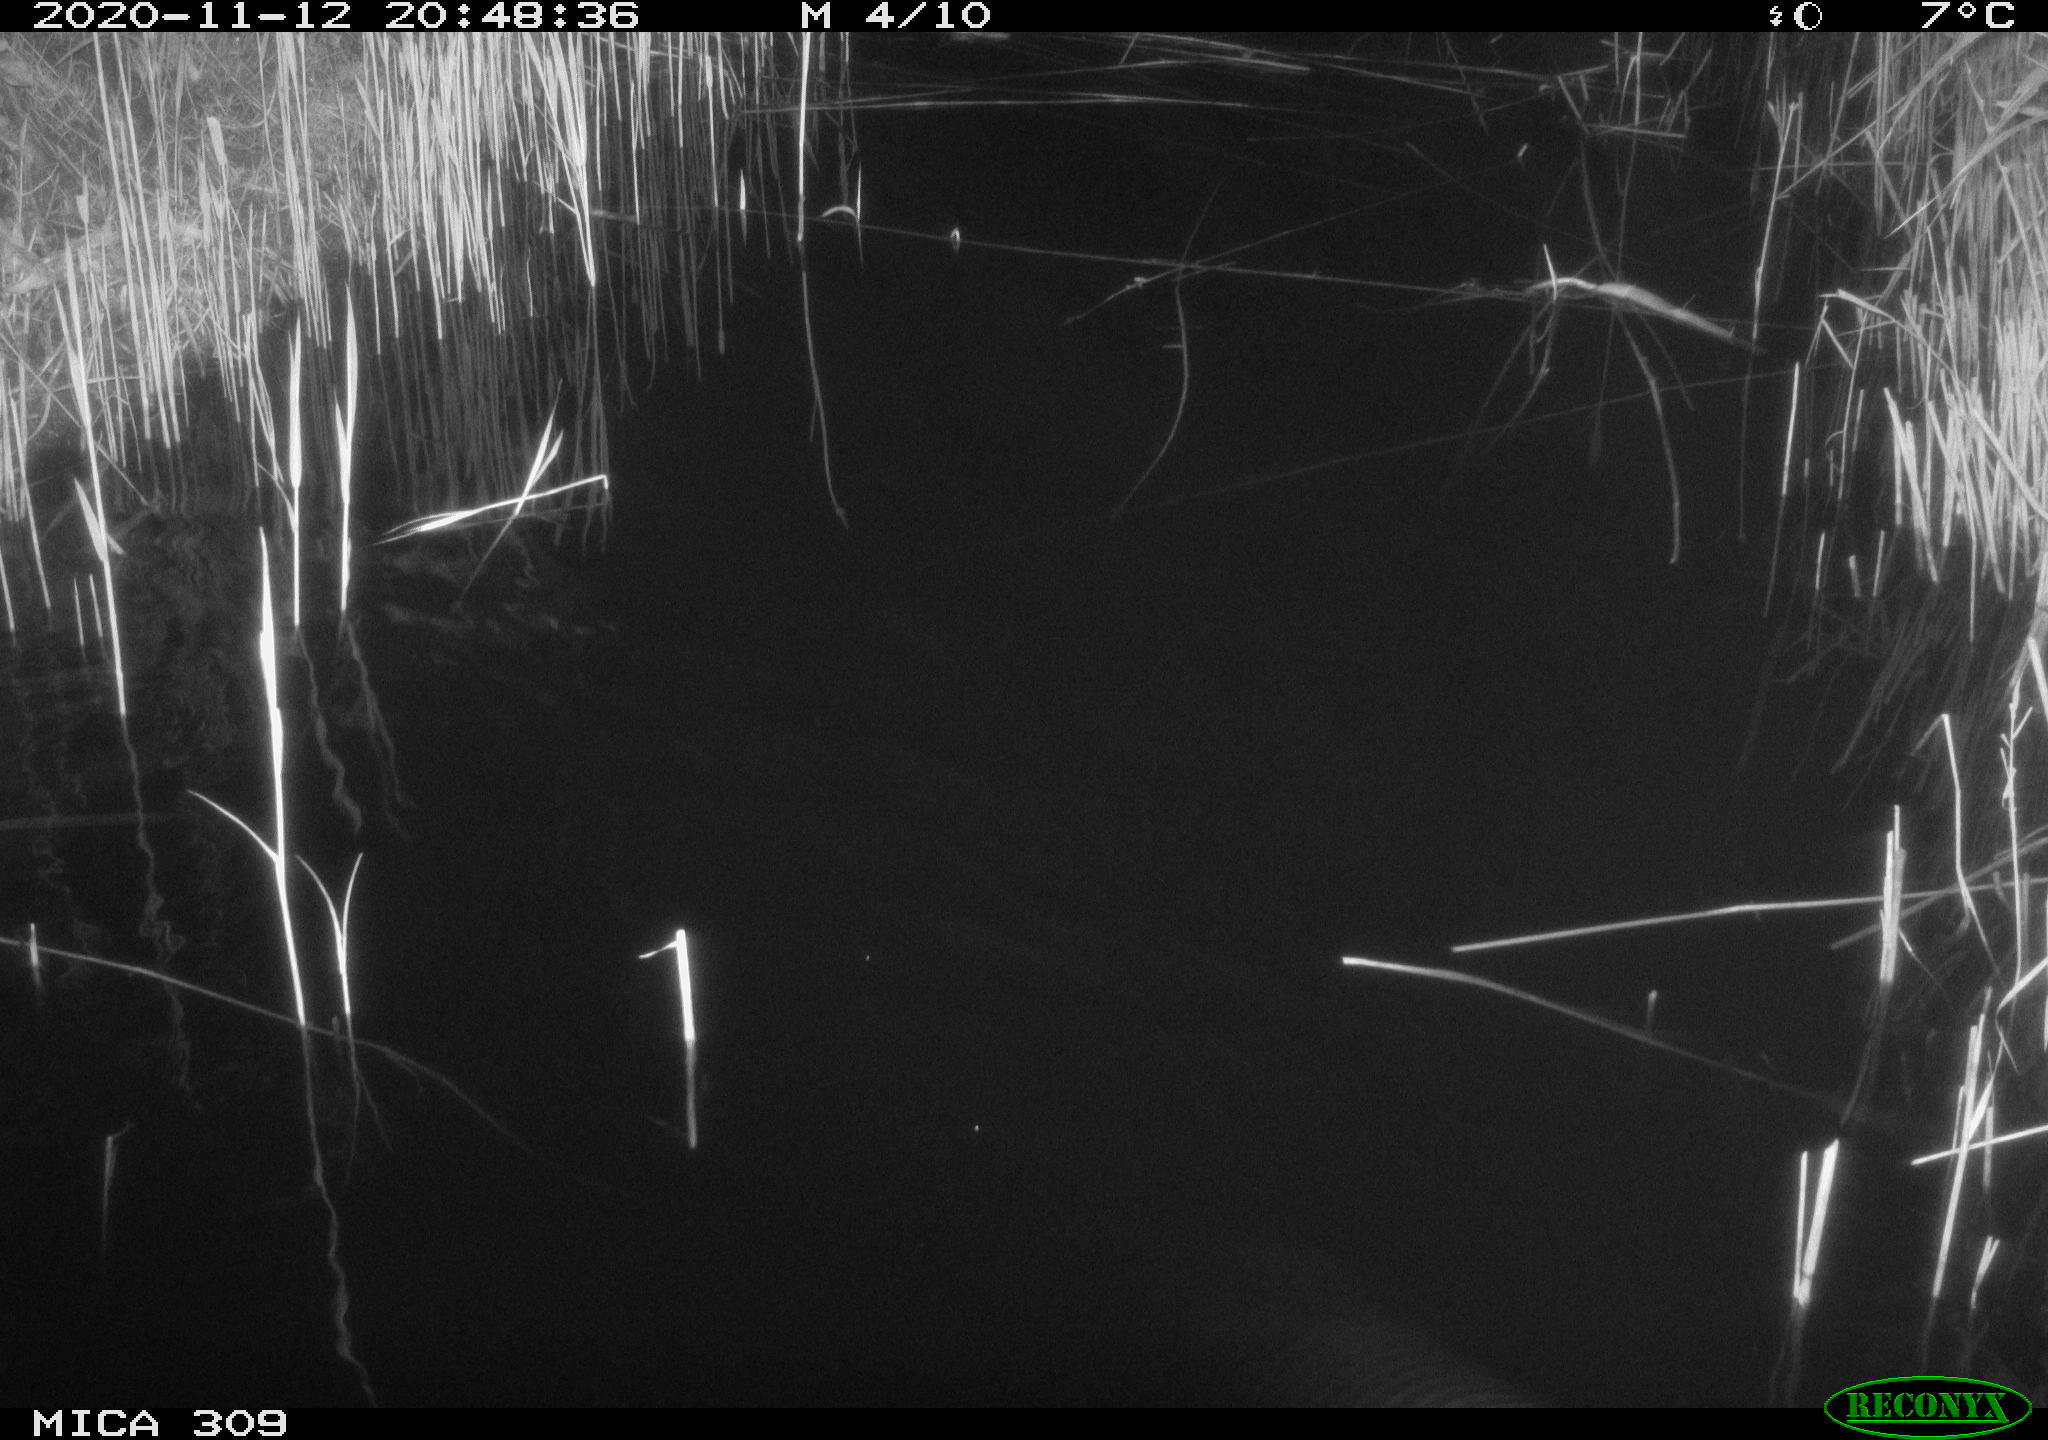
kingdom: Animalia
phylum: Chordata
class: Mammalia
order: Rodentia
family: Muridae
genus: Rattus
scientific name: Rattus norvegicus
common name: Brown rat
